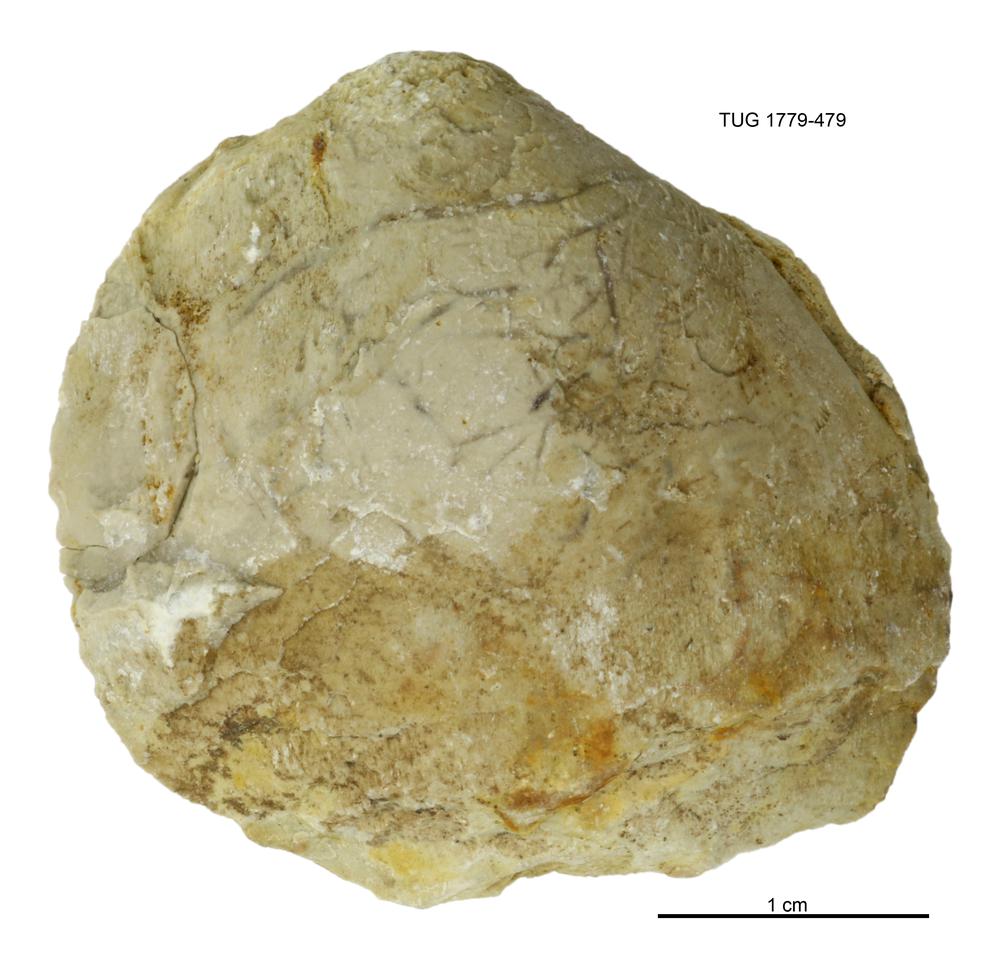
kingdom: Animalia
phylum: Mollusca
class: Bivalvia
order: Modiomorphida
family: Modiomorphidae
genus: Modiolopsis
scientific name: Modiolopsis
